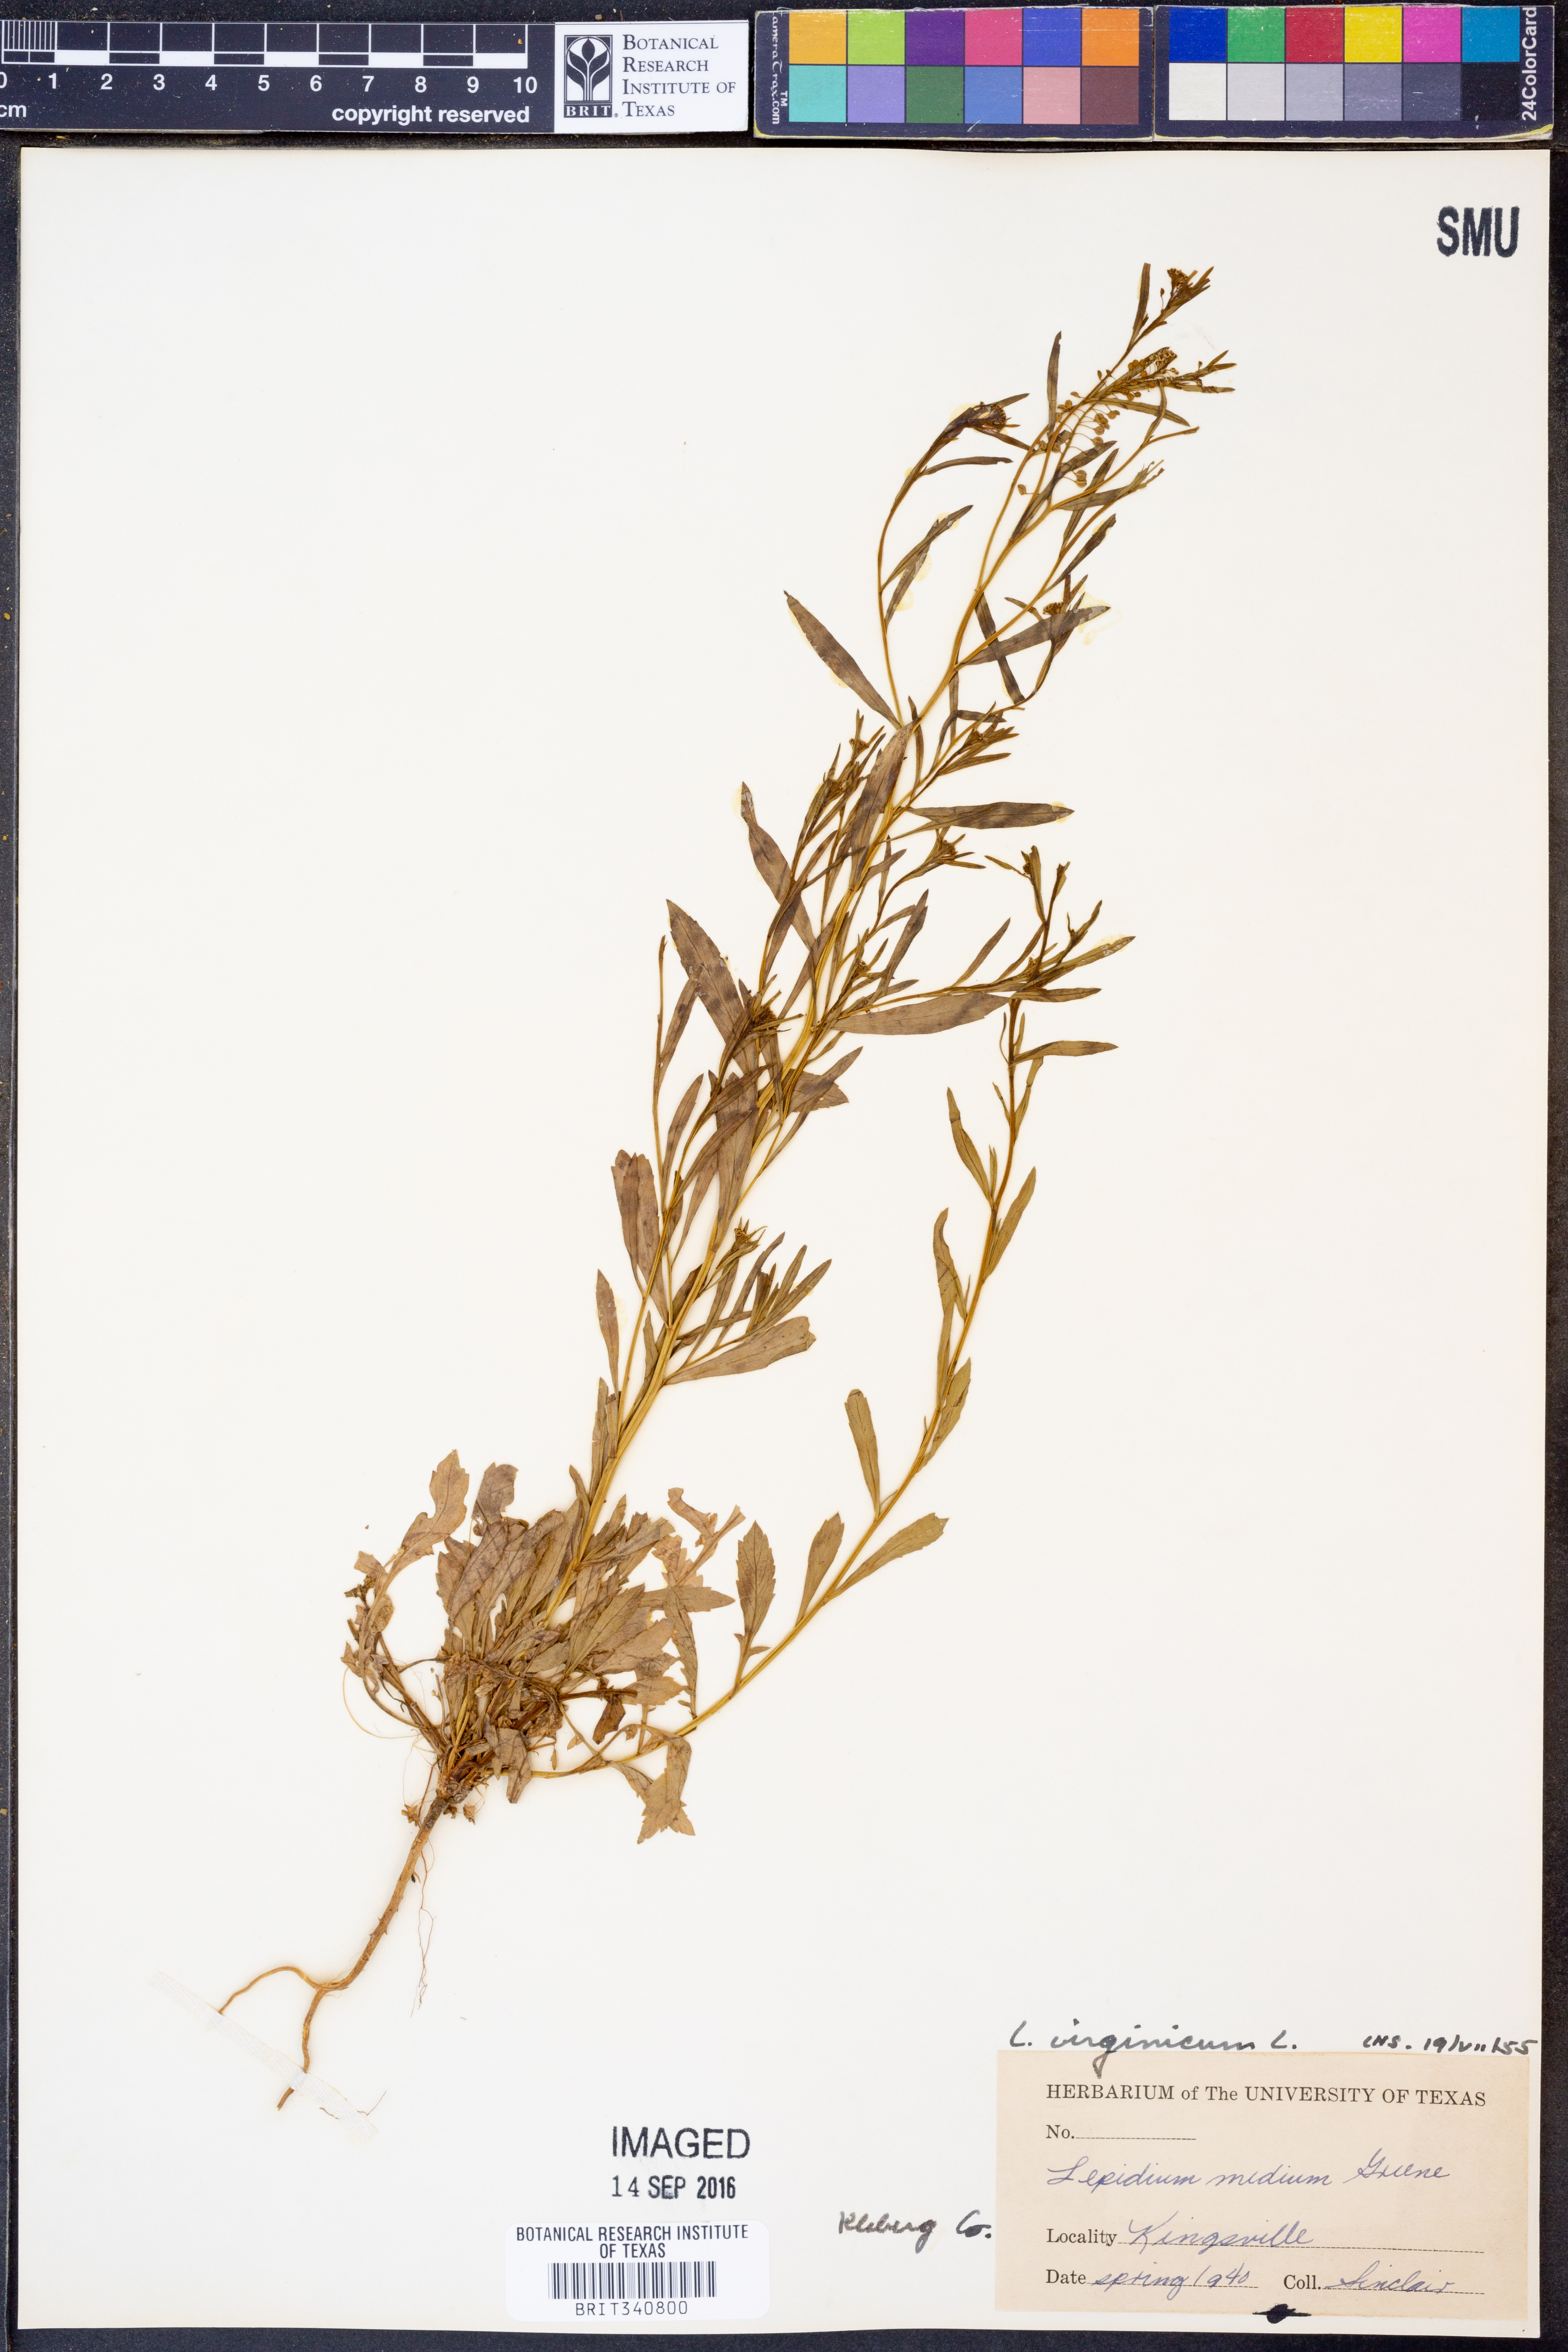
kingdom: Plantae
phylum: Tracheophyta
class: Magnoliopsida
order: Brassicales
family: Brassicaceae
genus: Lepidium
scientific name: Lepidium virginicum
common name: Least pepperwort
